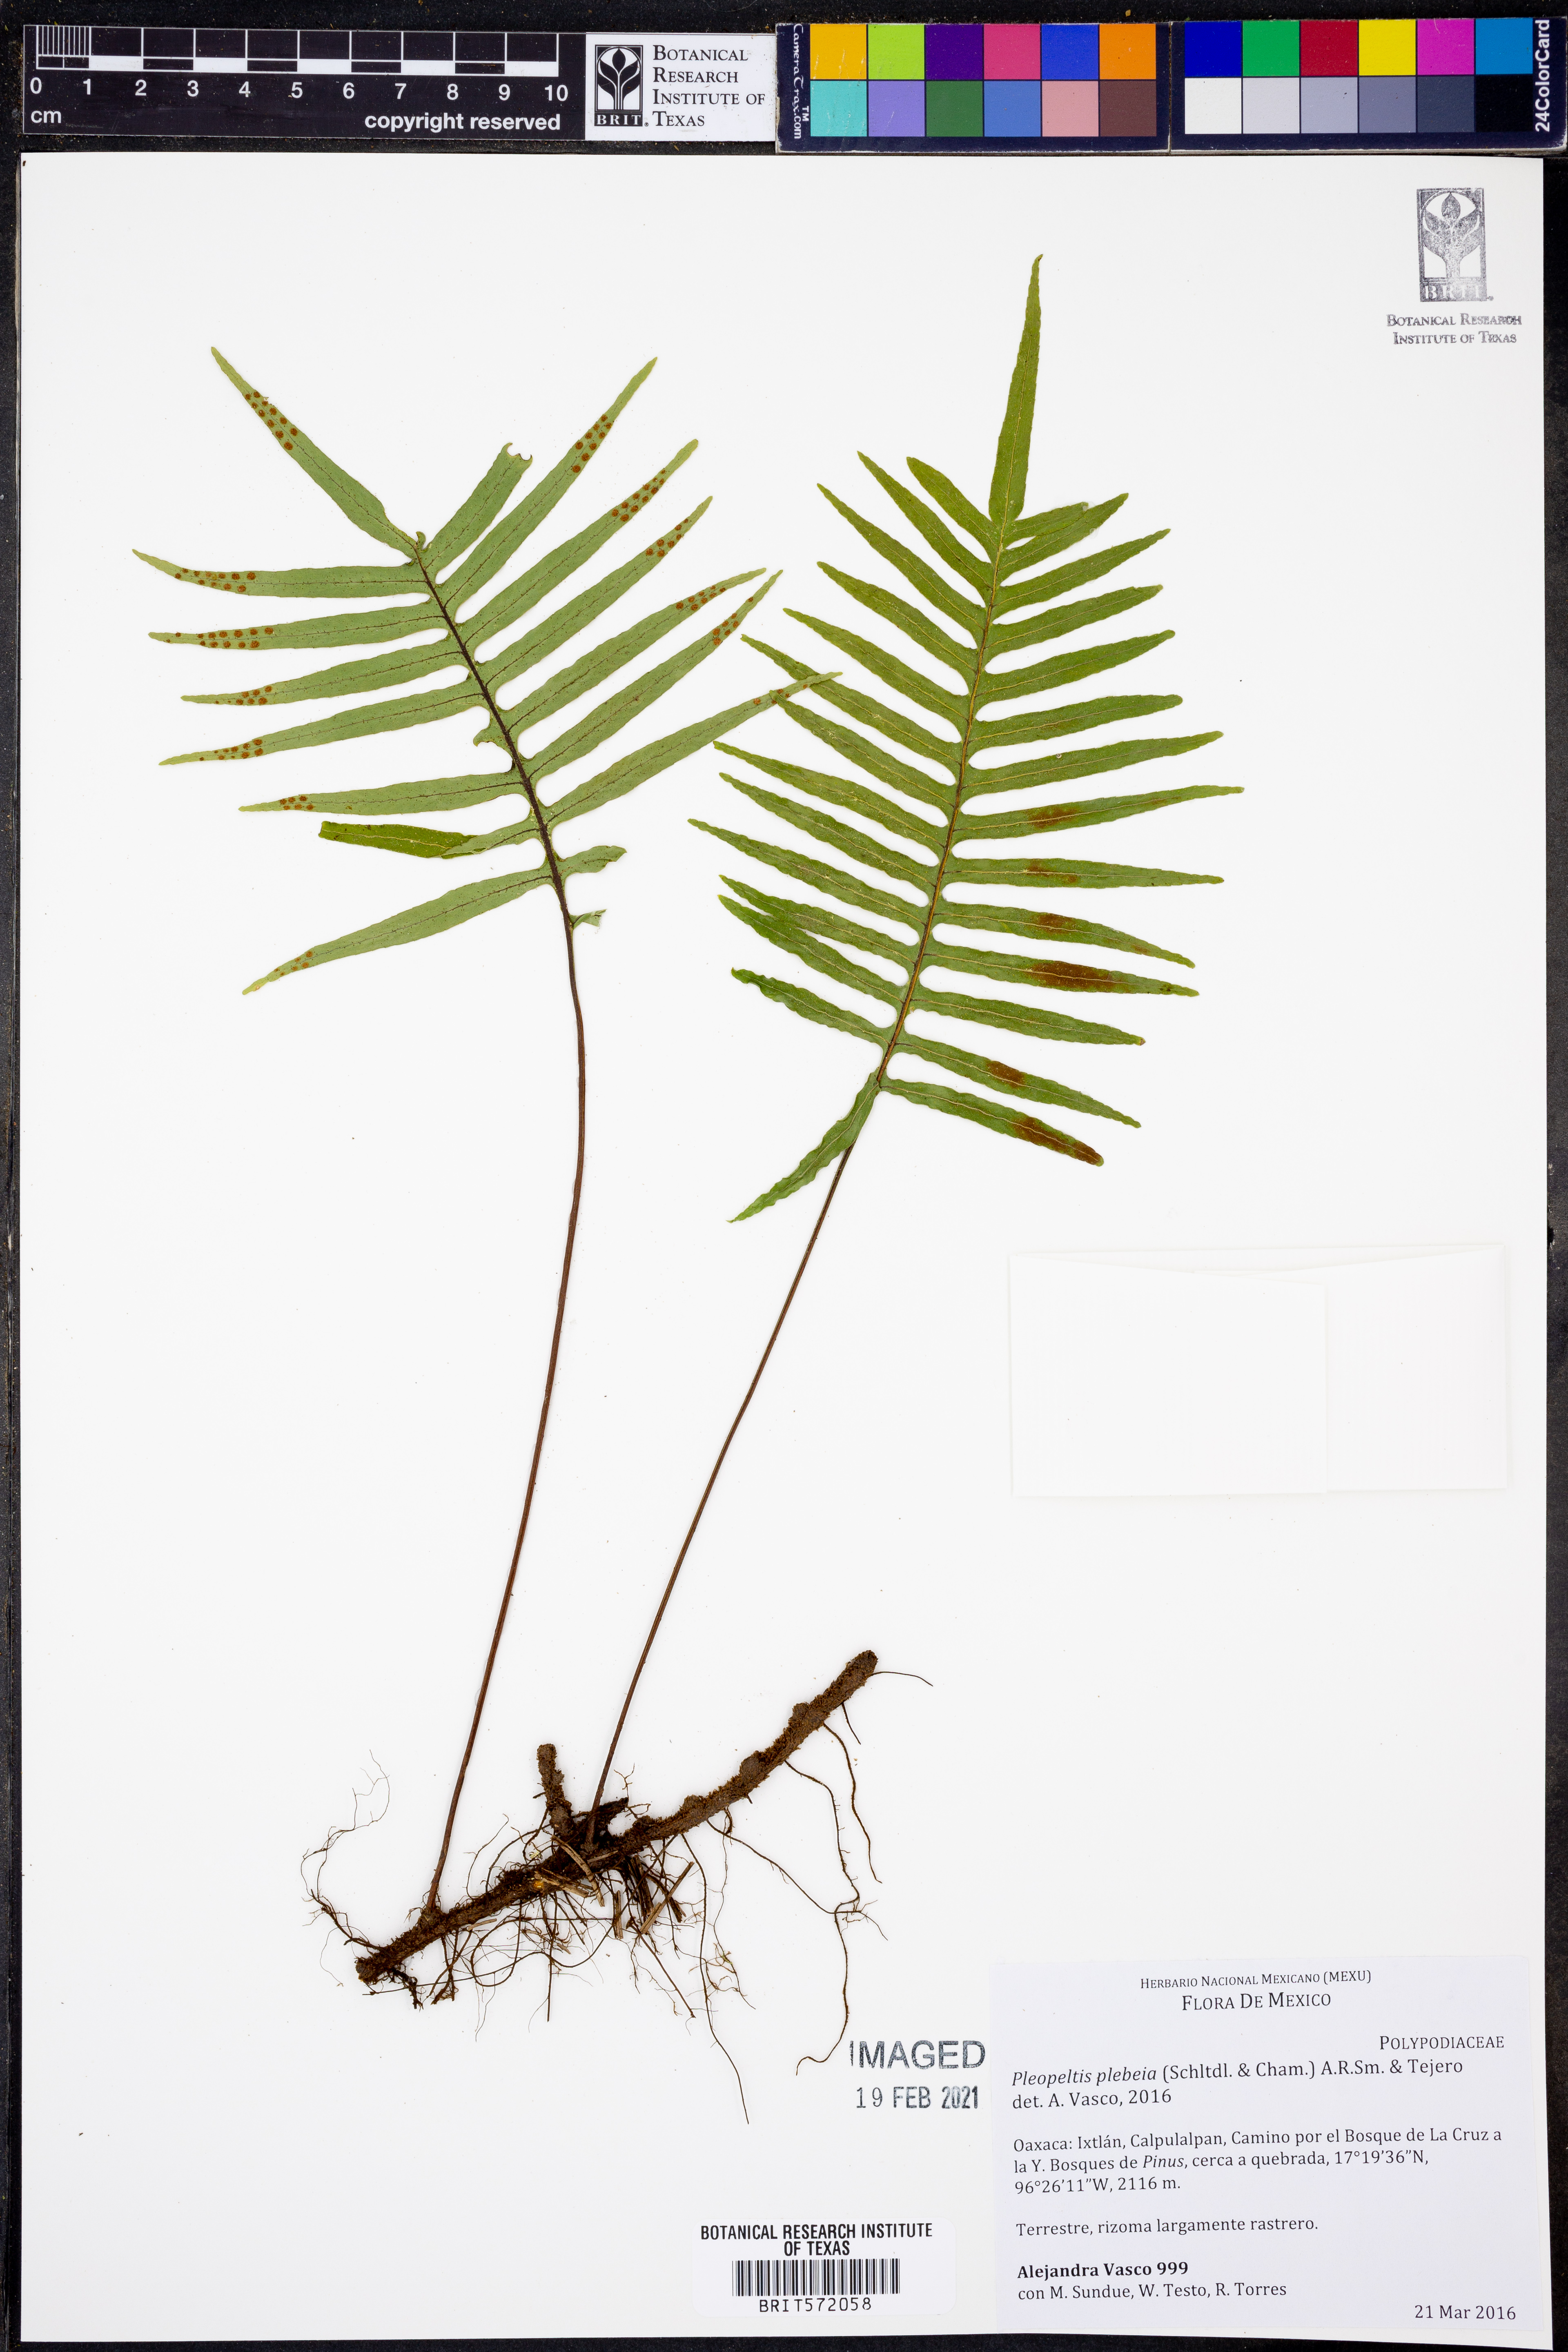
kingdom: Plantae
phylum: Tracheophyta
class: Polypodiopsida
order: Polypodiales
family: Polypodiaceae
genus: Pleopeltis
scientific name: Pleopeltis plebeia
